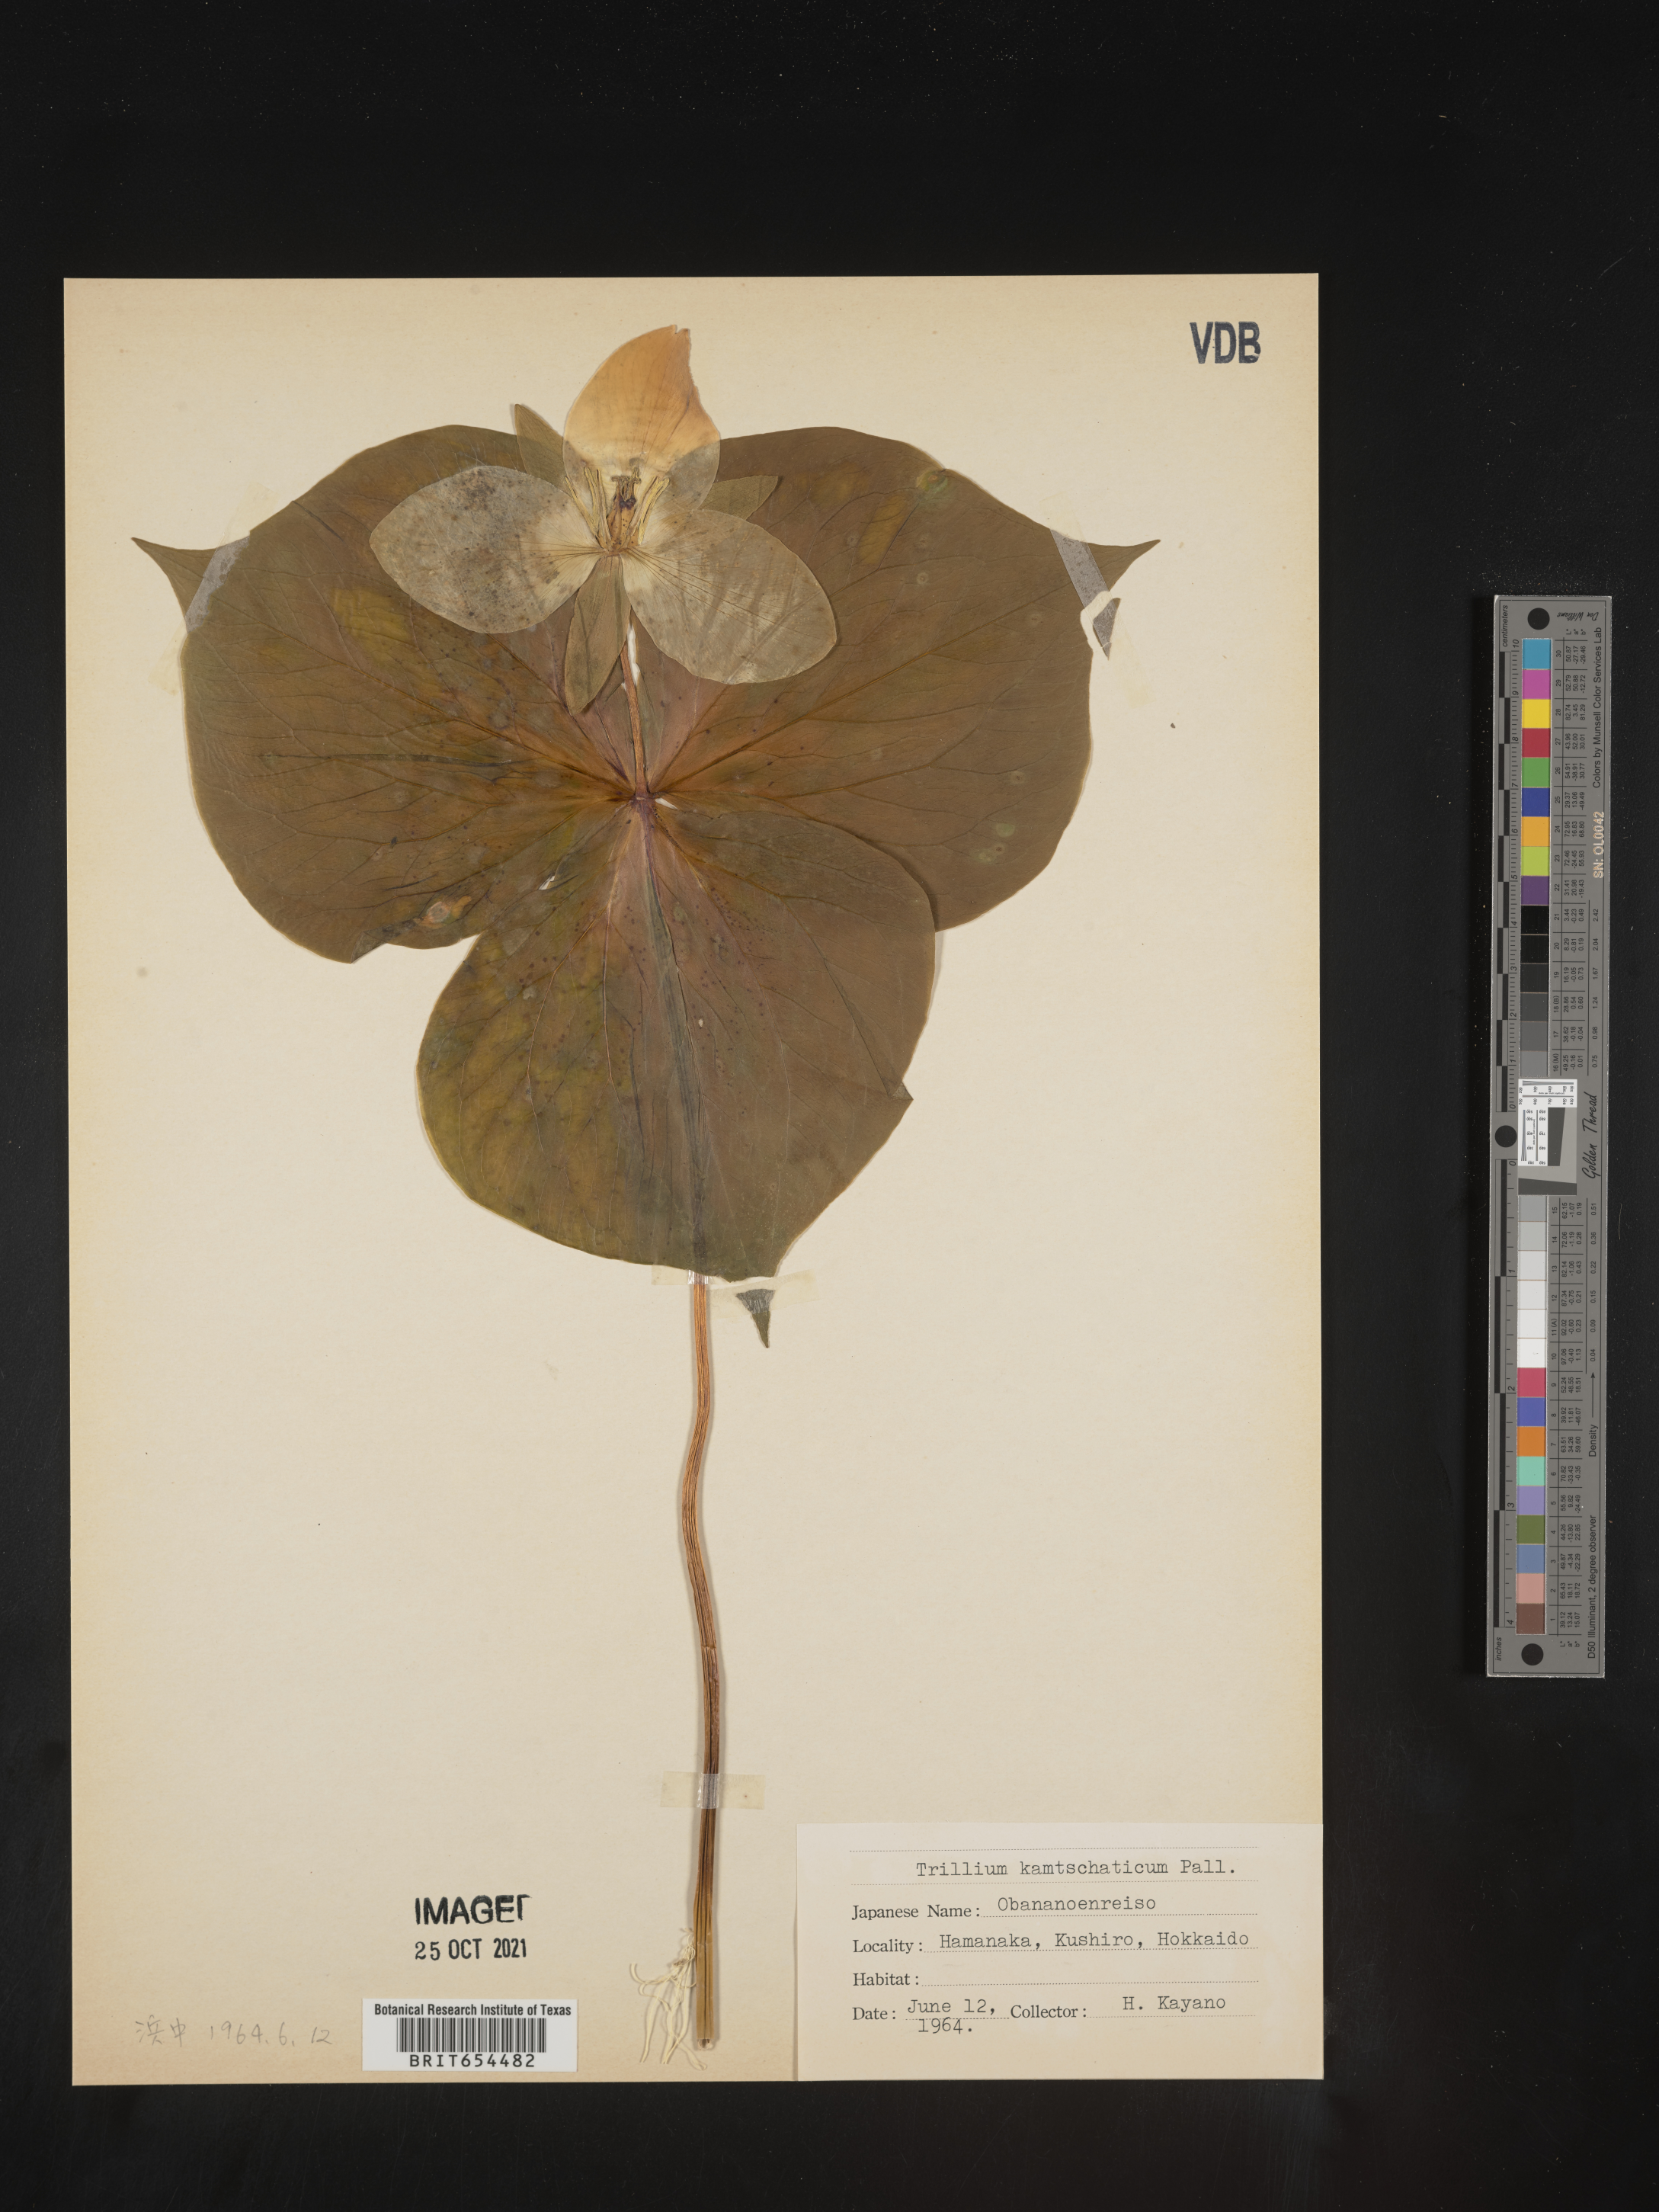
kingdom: Plantae
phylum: Tracheophyta
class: Liliopsida
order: Liliales
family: Melanthiaceae
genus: Trillium
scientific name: Trillium
